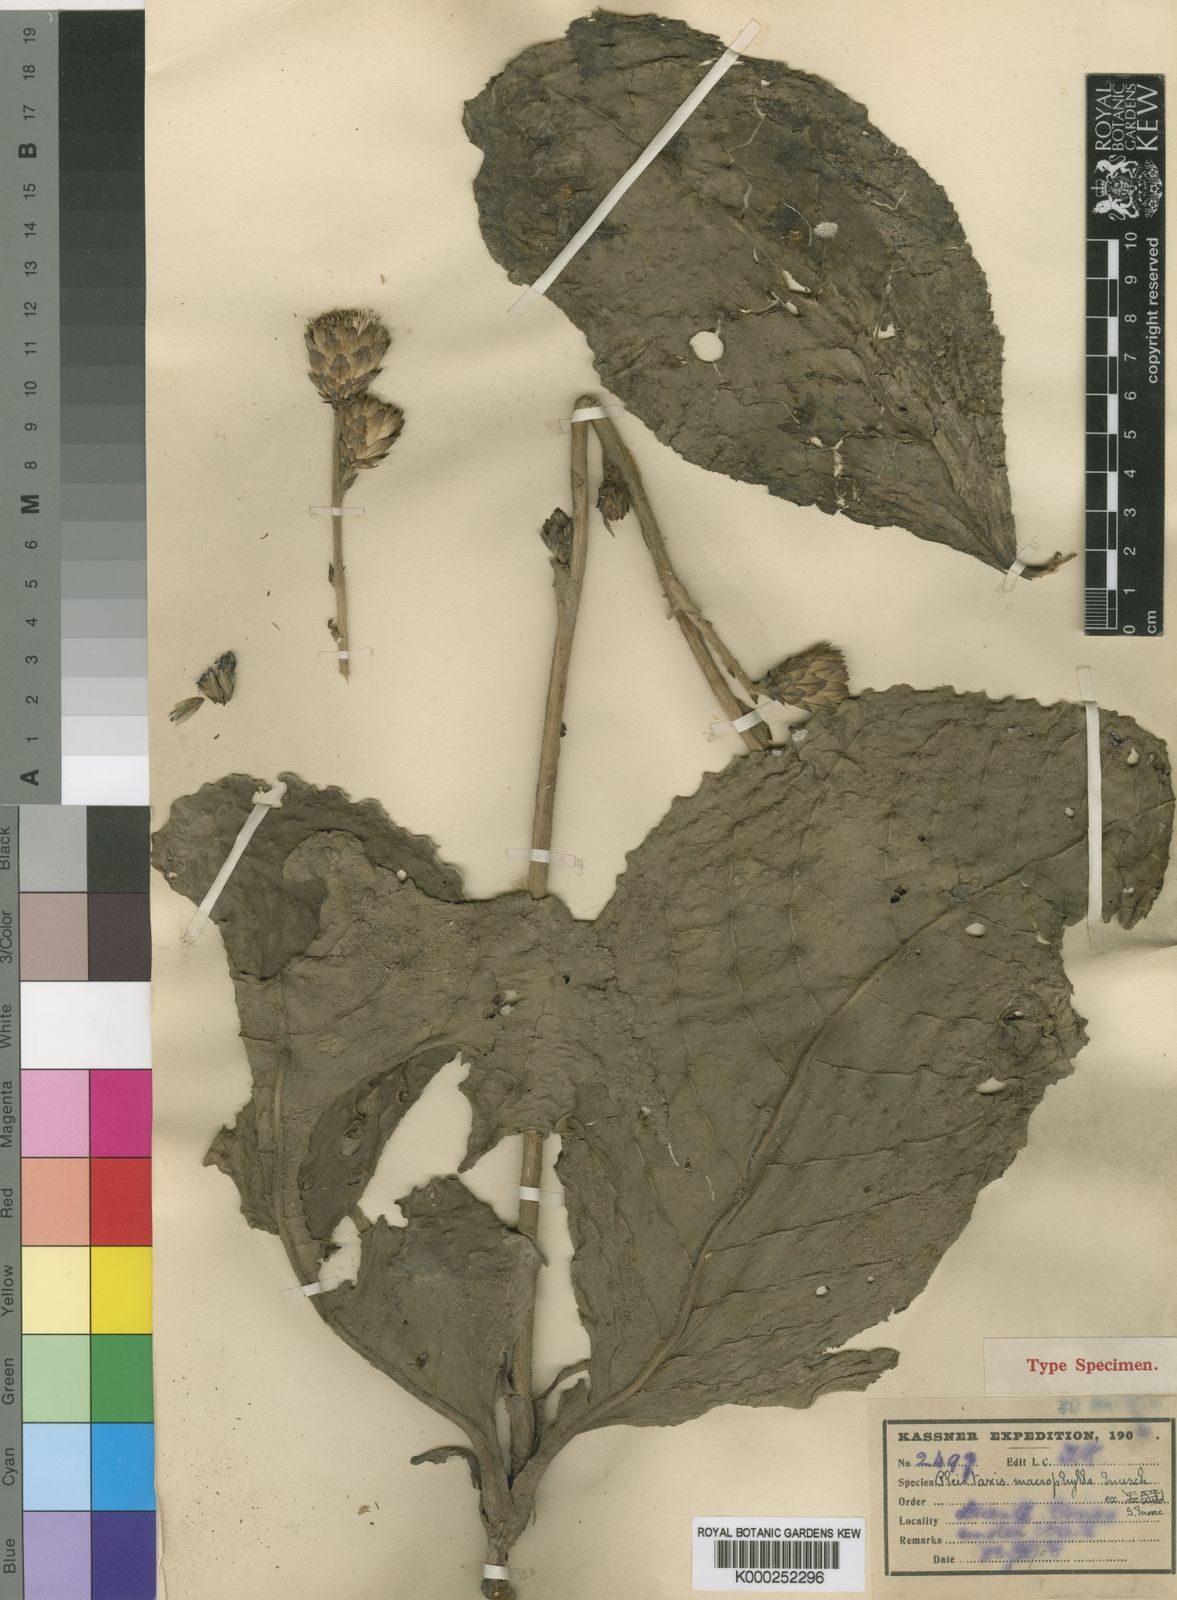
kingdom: Plantae
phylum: Tracheophyta
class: Magnoliopsida
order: Asterales
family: Asteraceae
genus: Pleiotaxis
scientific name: Pleiotaxis macrophylla
